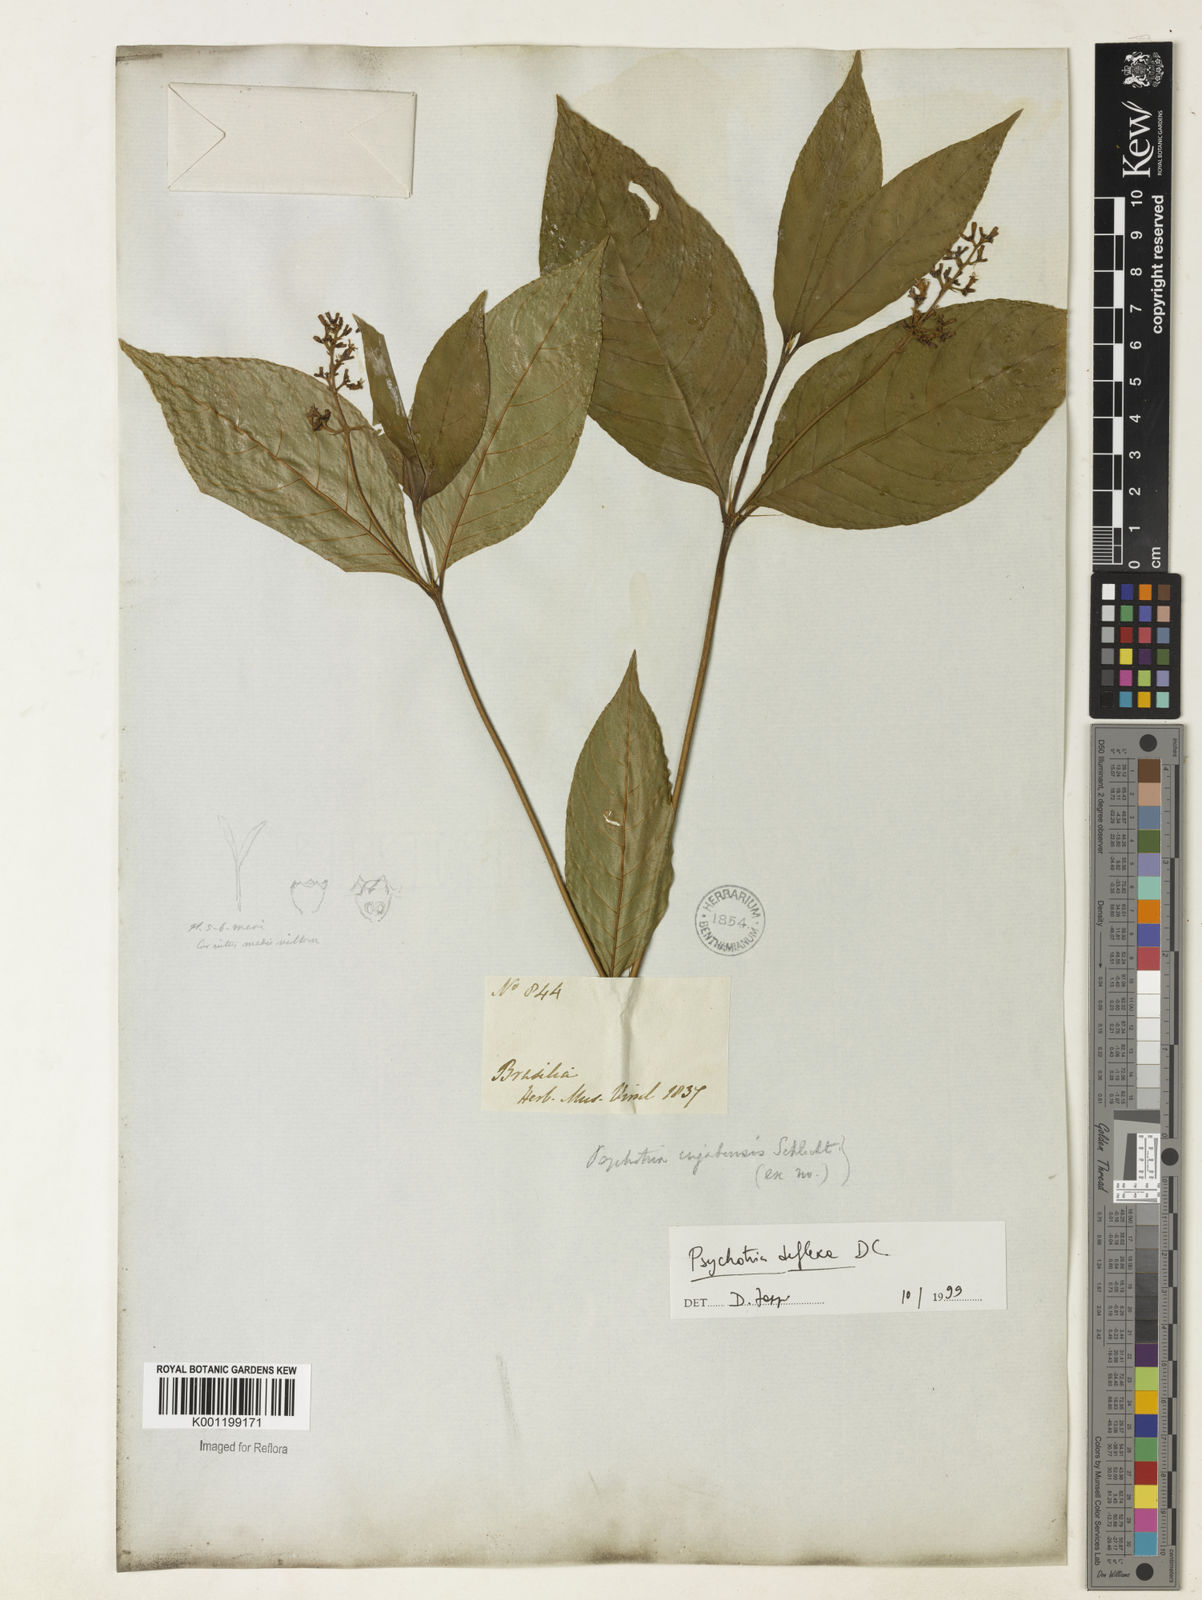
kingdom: Plantae
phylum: Tracheophyta
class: Magnoliopsida
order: Gentianales
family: Rubiaceae
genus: Palicourea
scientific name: Palicourea deflexa
